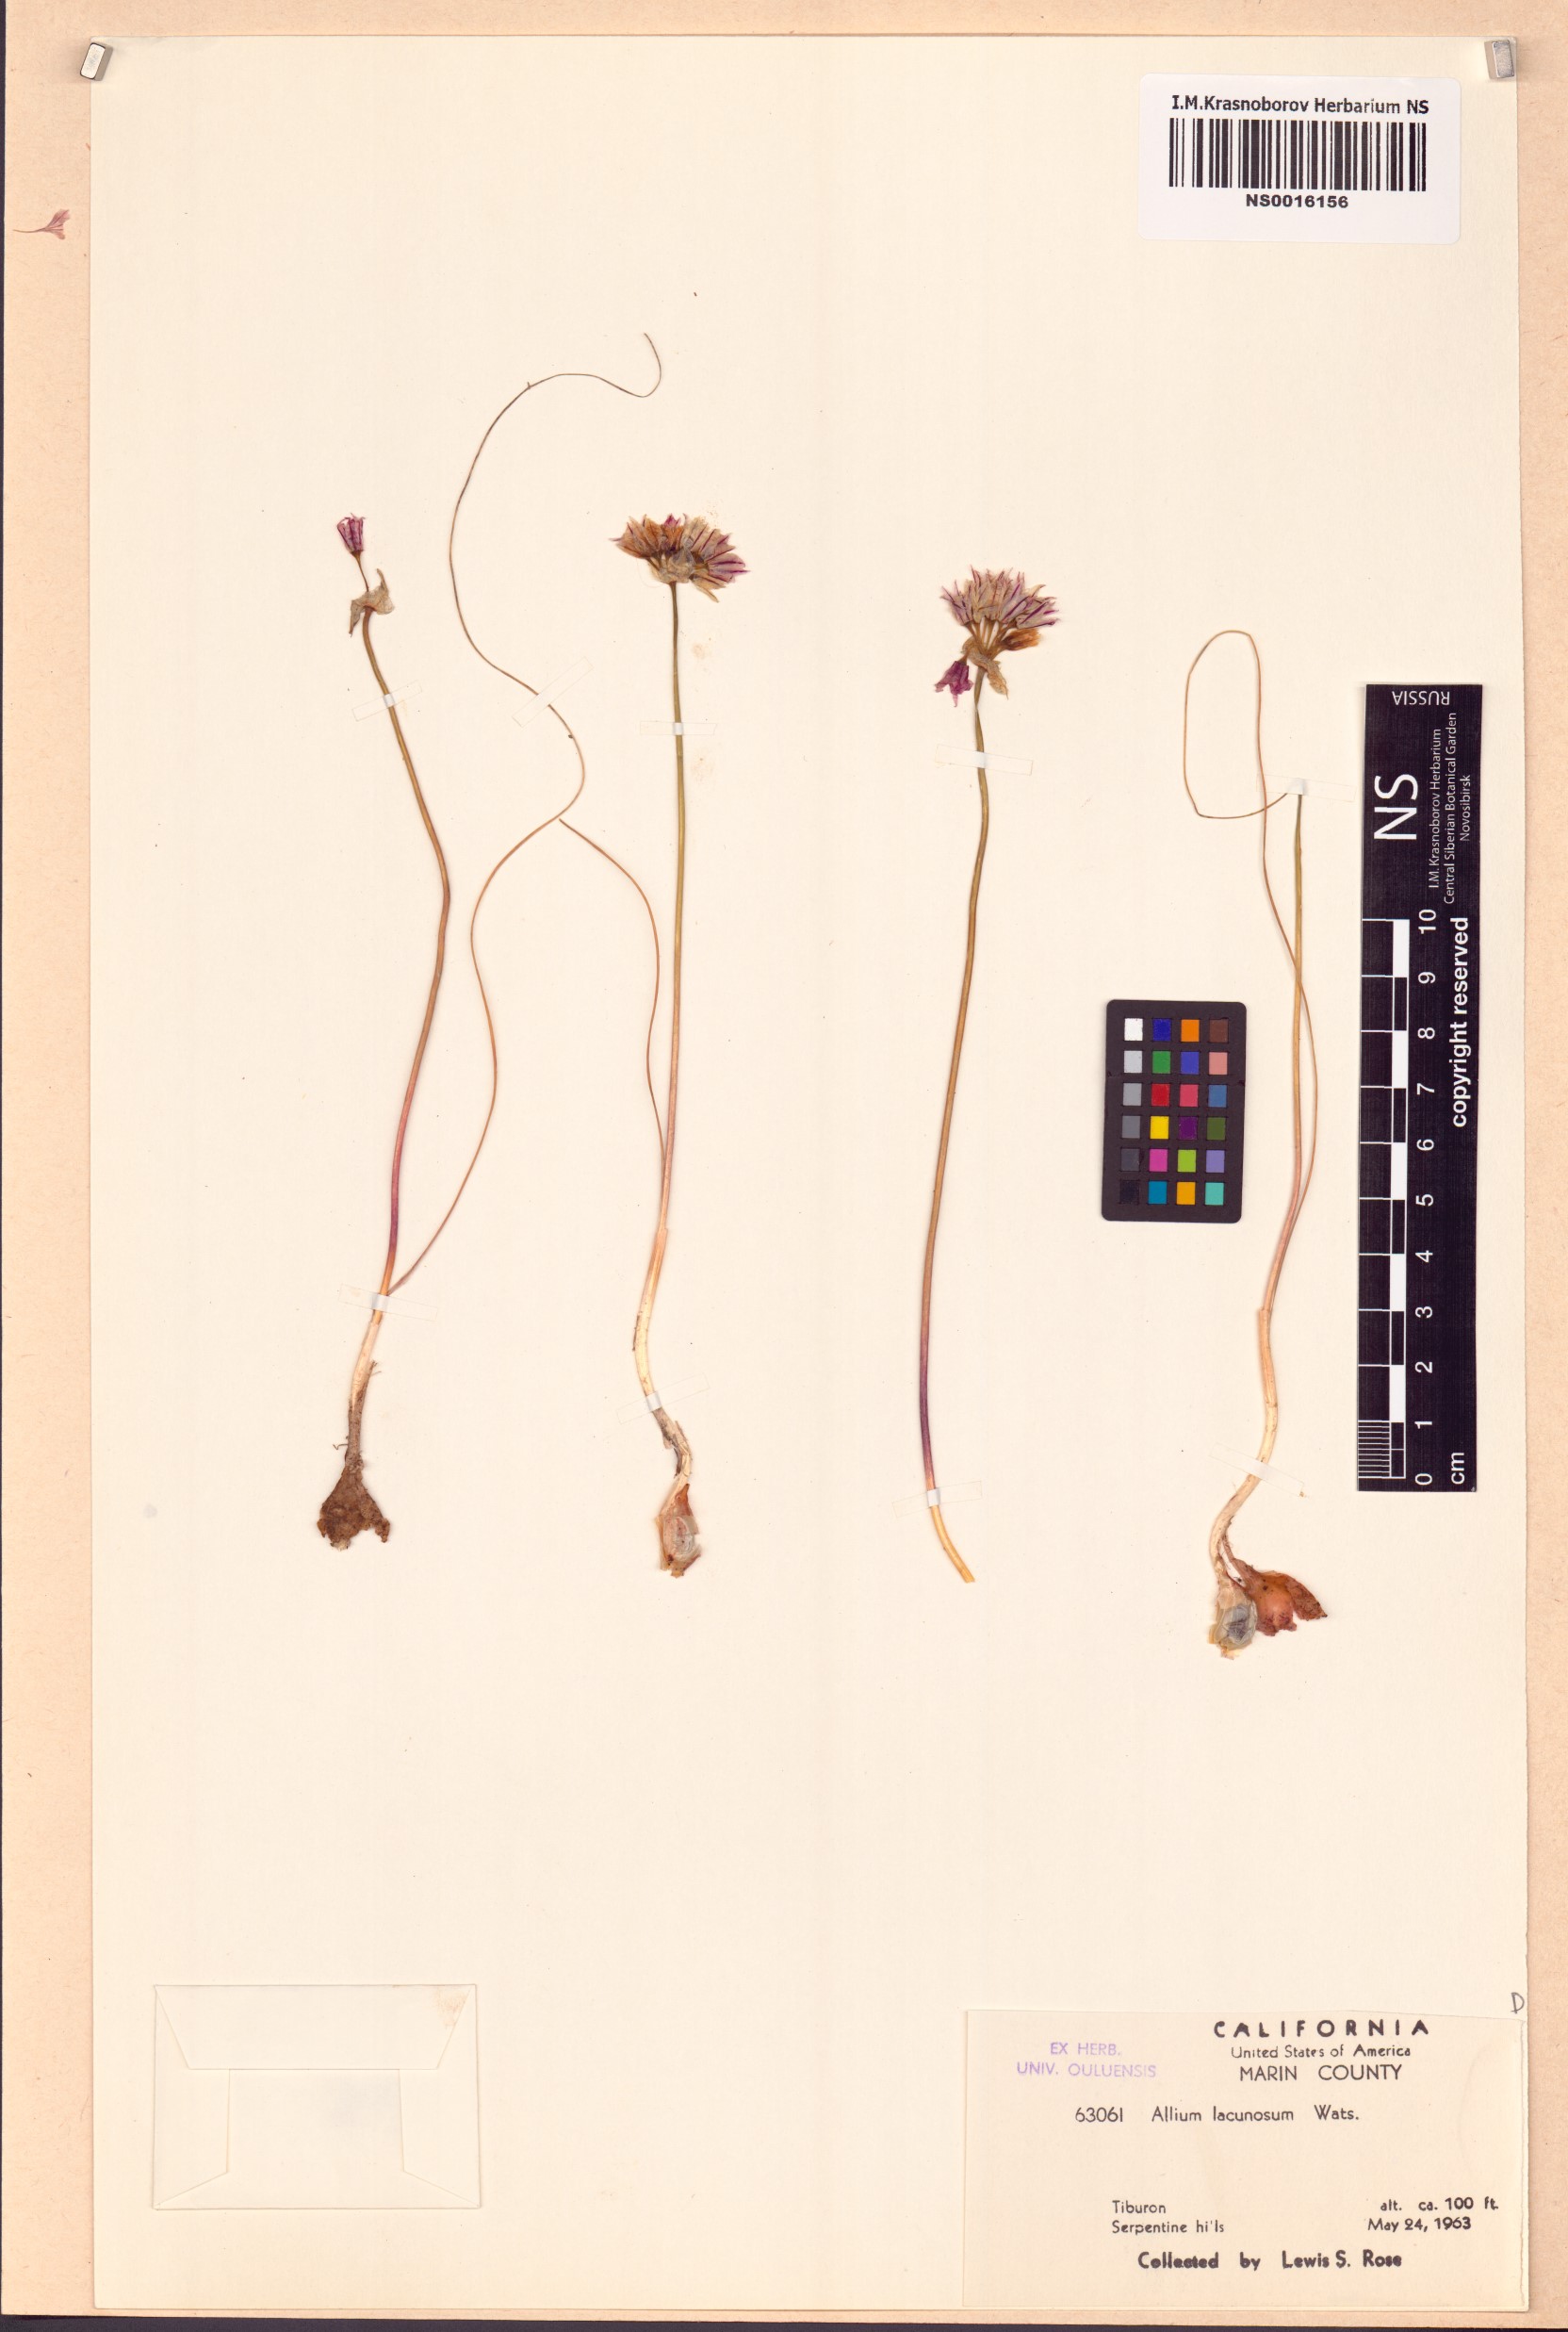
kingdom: Plantae
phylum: Tracheophyta
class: Liliopsida
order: Asparagales
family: Amaryllidaceae
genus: Allium
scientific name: Allium lacunosum
